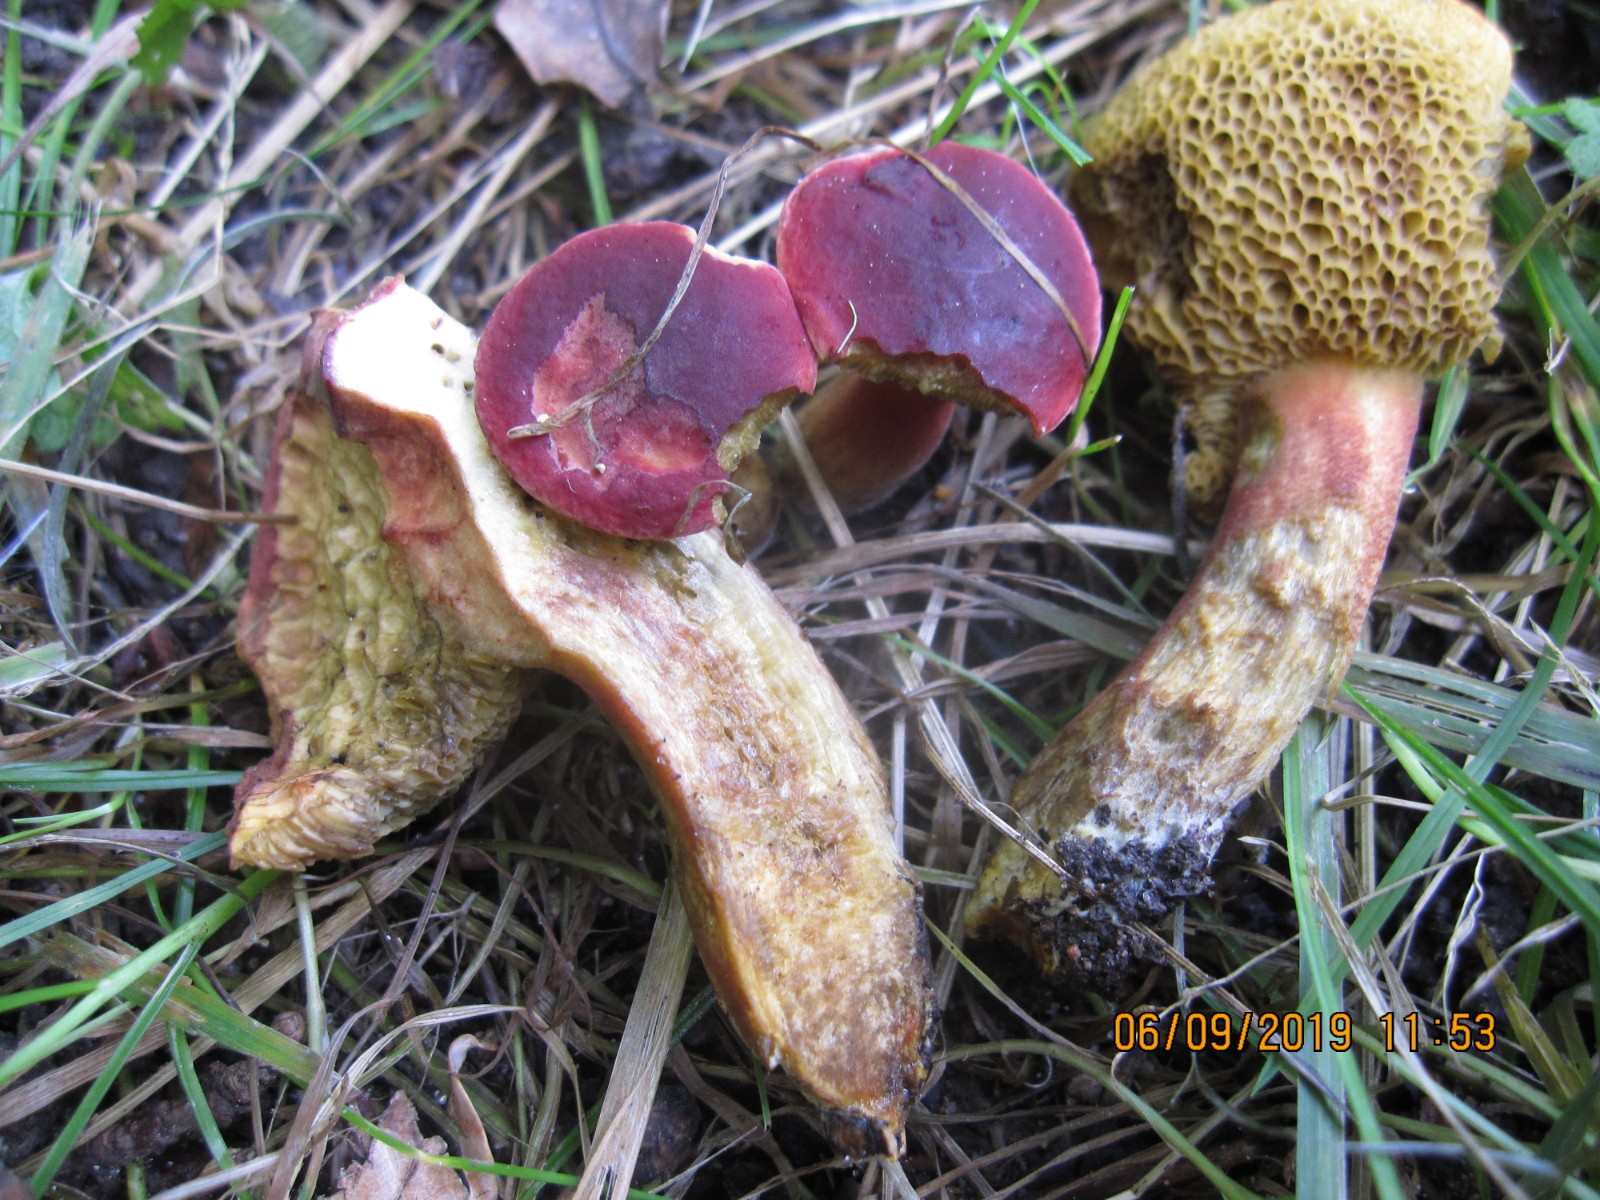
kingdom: Fungi
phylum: Basidiomycota
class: Agaricomycetes
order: Boletales
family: Boletaceae
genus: Hortiboletus
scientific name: Hortiboletus rubellus
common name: blodrød rørhat
